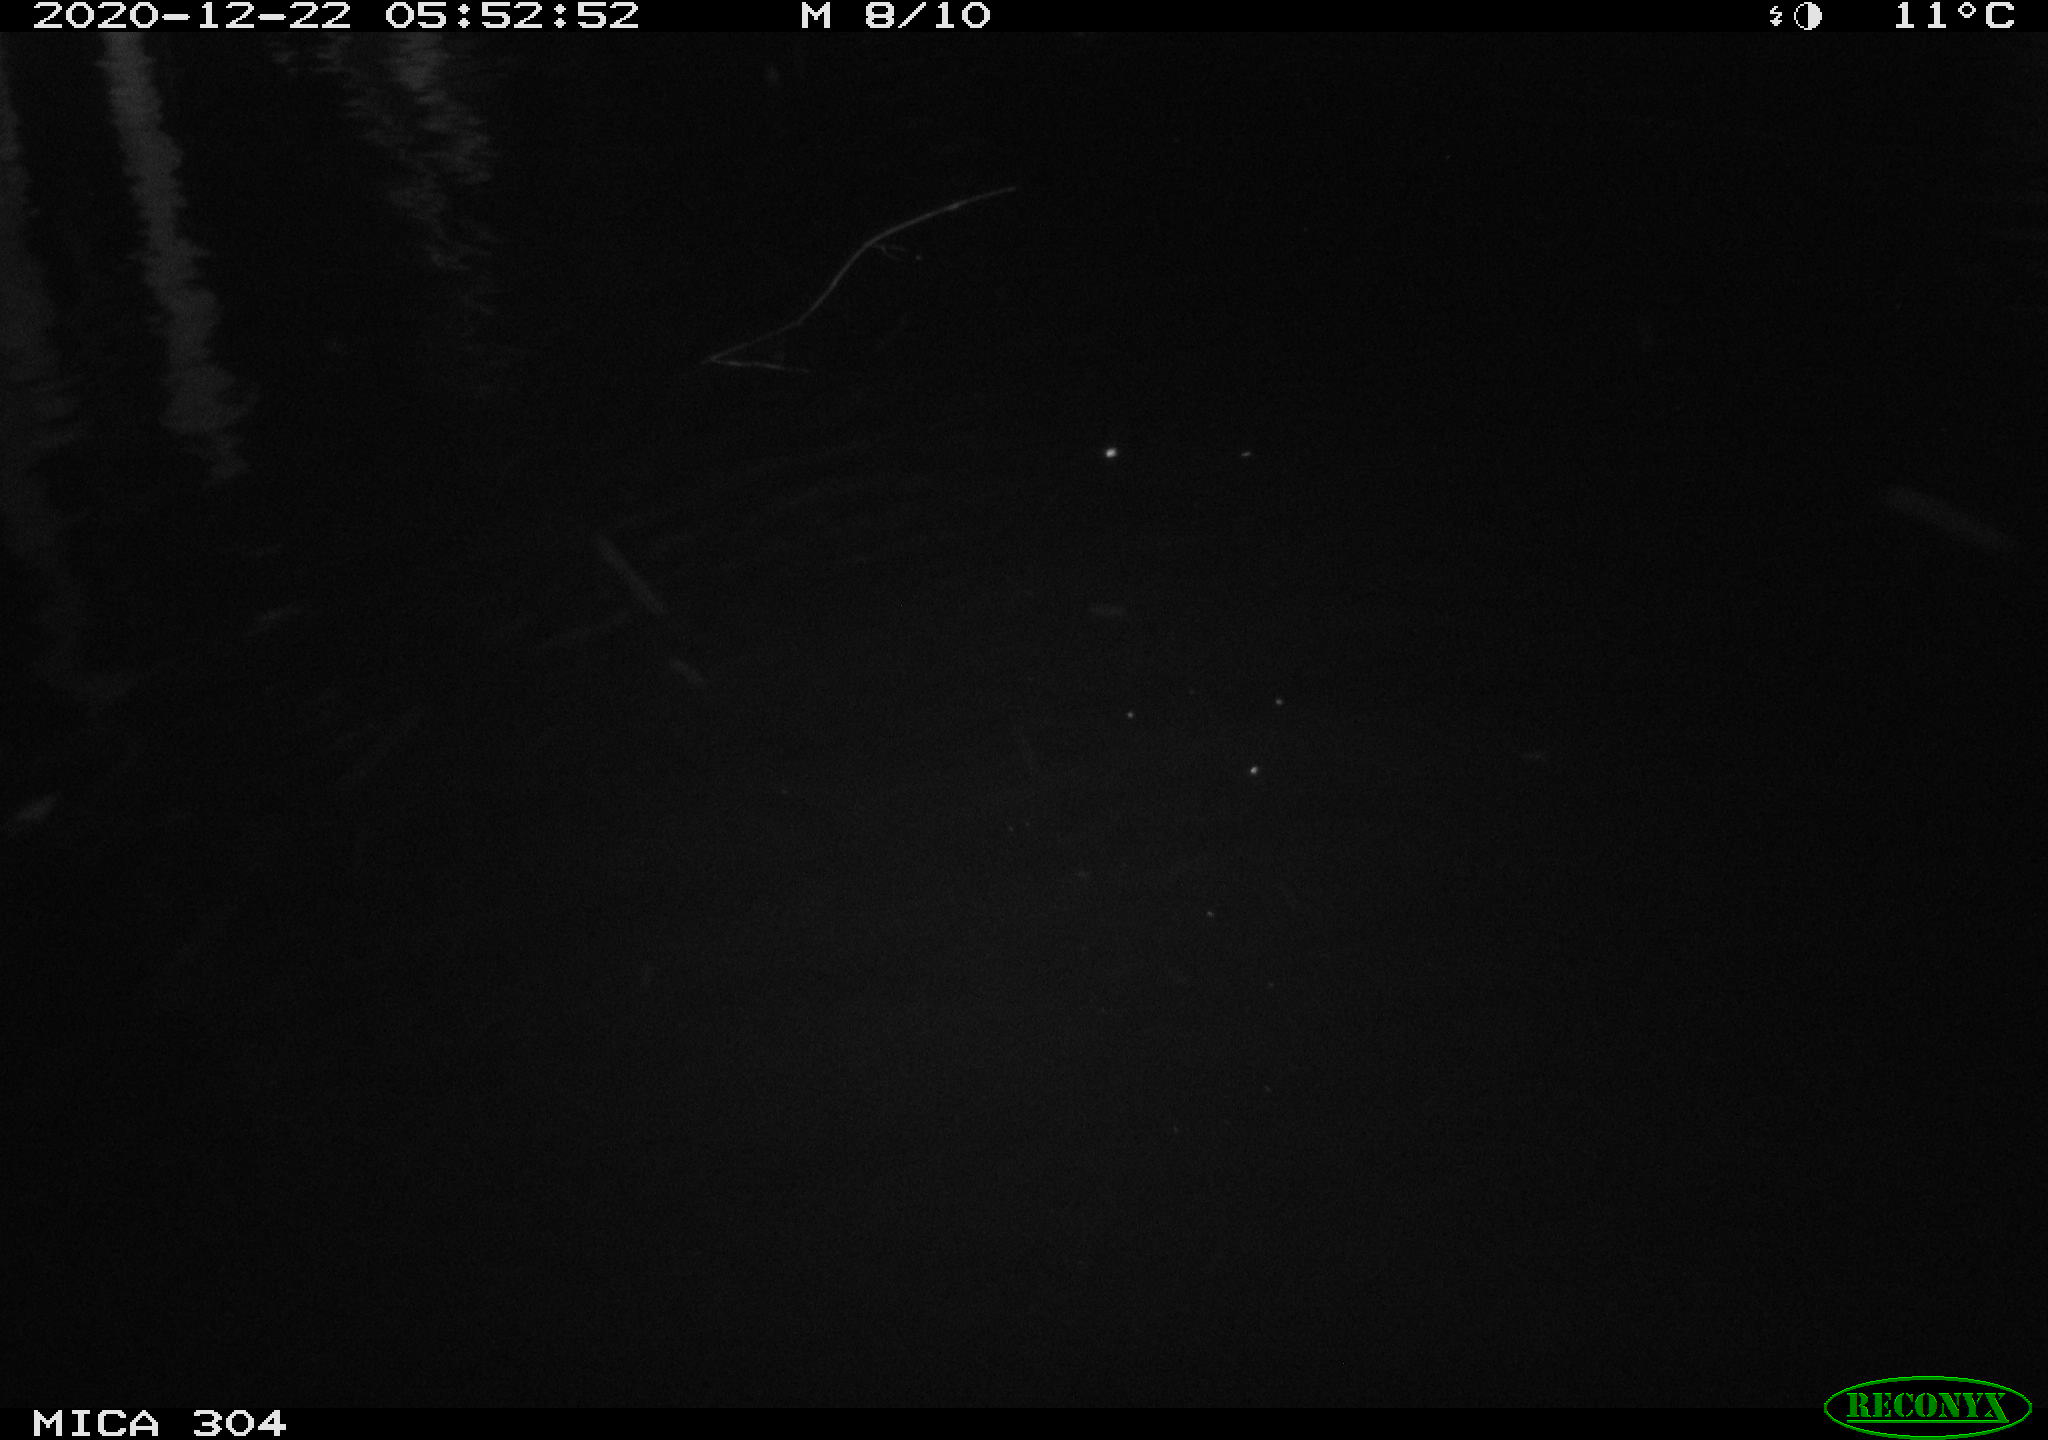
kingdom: Animalia
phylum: Chordata
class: Mammalia
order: Rodentia
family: Muridae
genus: Rattus
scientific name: Rattus norvegicus
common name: Brown rat
